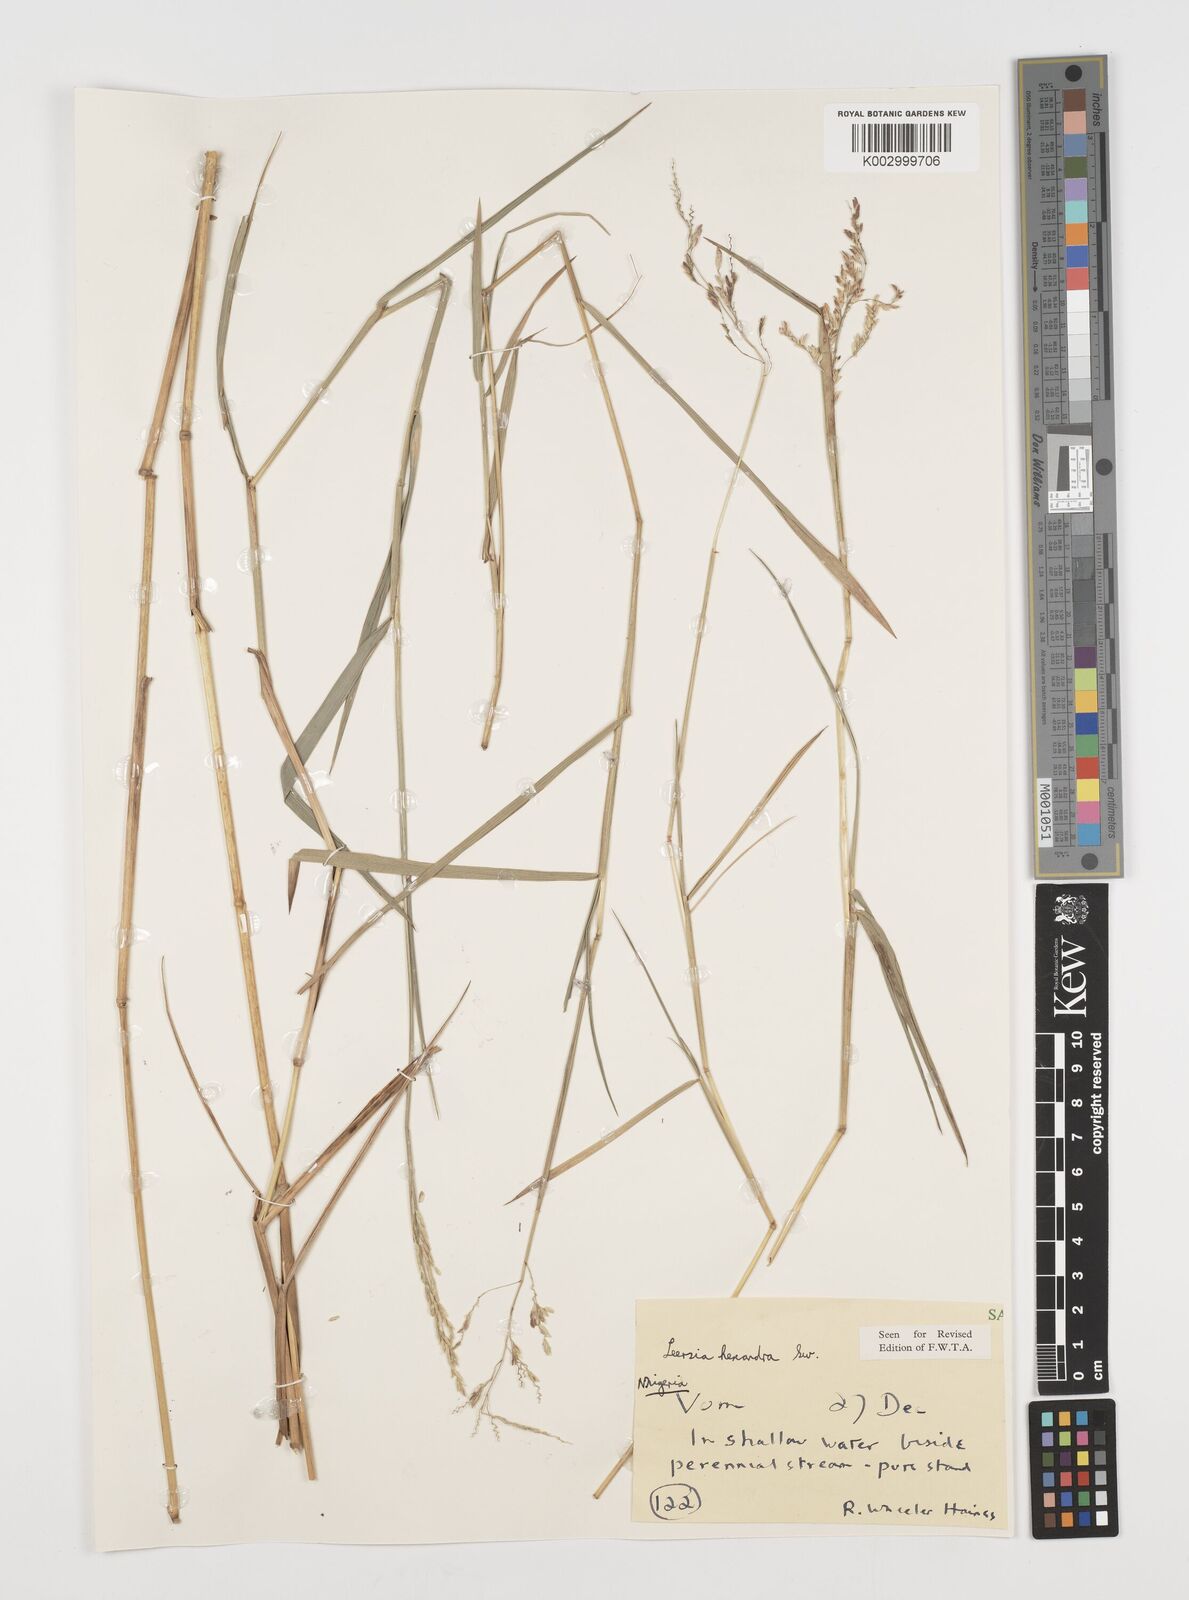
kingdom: Plantae
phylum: Tracheophyta
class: Liliopsida
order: Poales
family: Poaceae
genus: Leersia
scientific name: Leersia hexandra
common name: Southern cut grass
